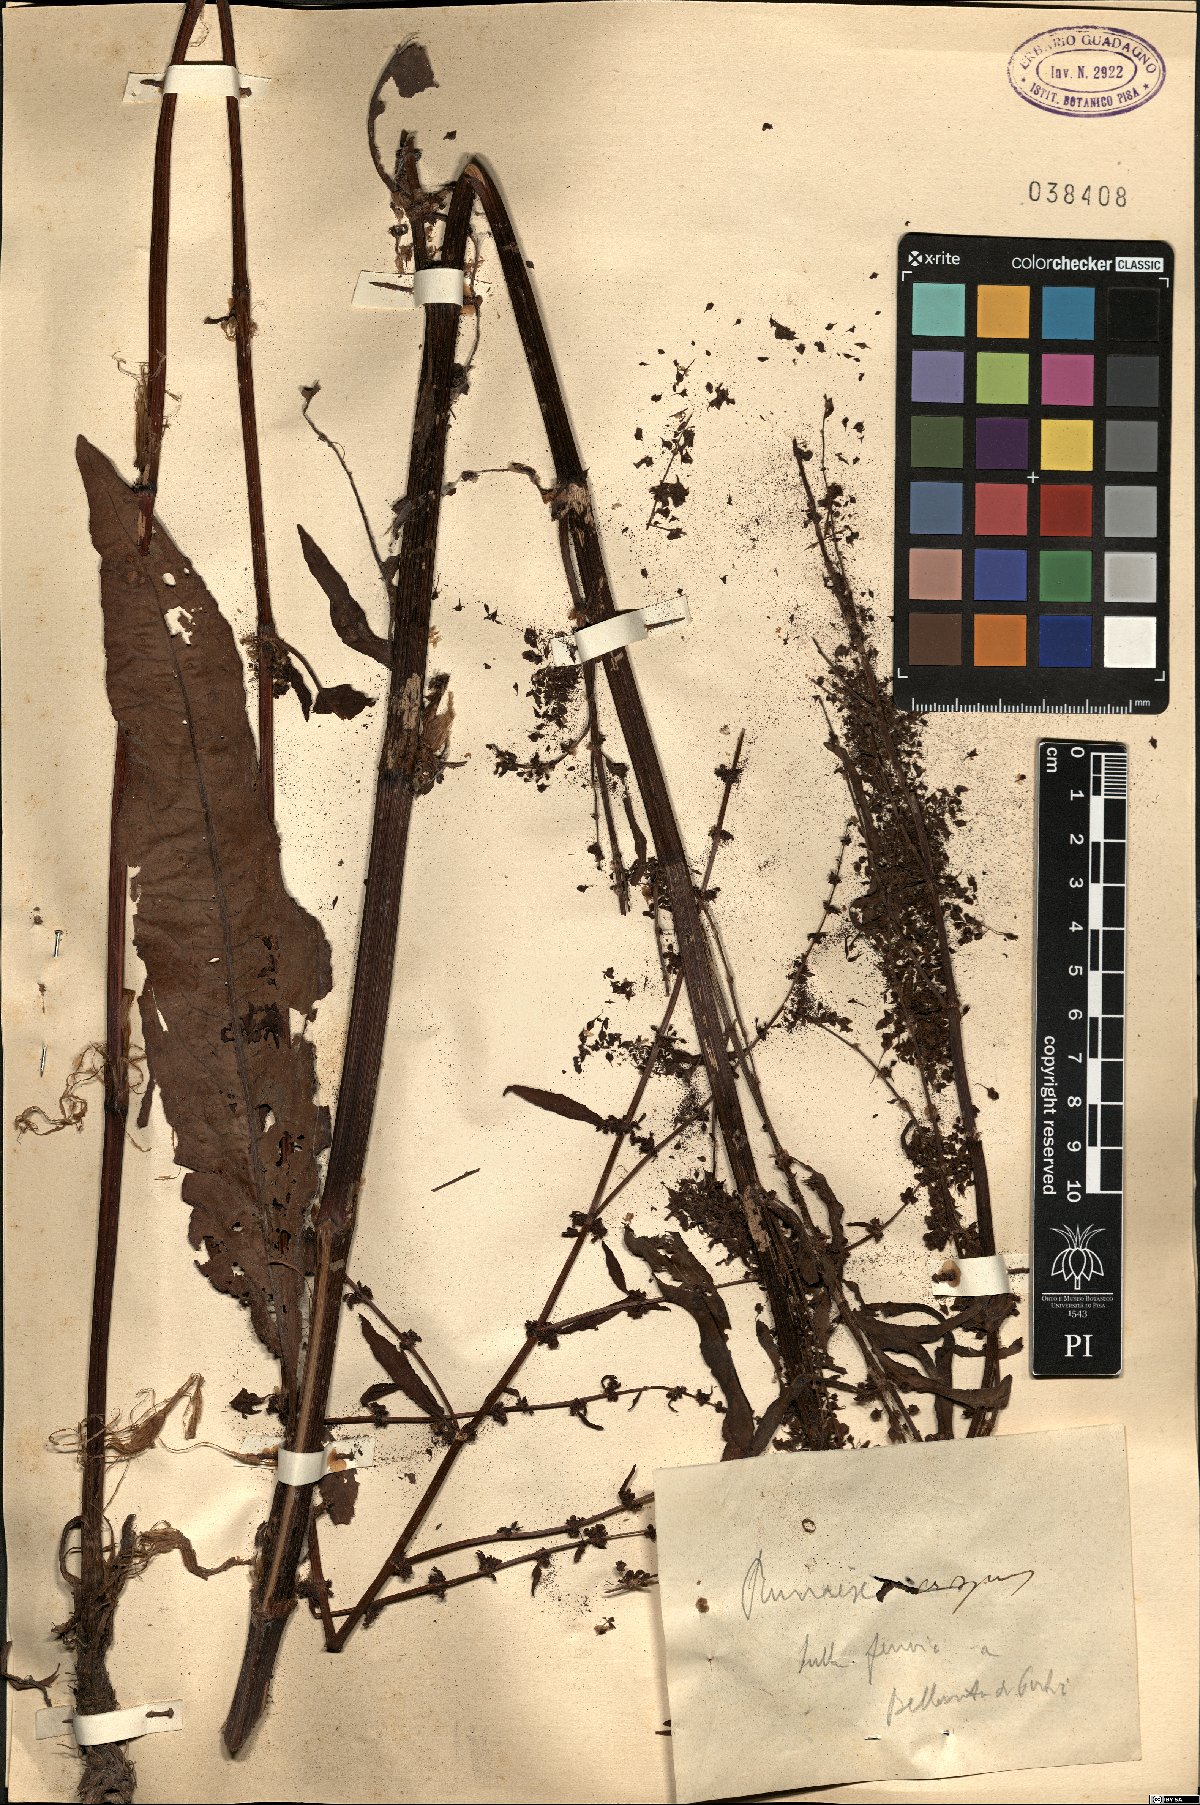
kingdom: Plantae
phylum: Tracheophyta
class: Magnoliopsida
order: Caryophyllales
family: Polygonaceae
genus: Rumex
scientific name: Rumex crispus
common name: Curled dock
